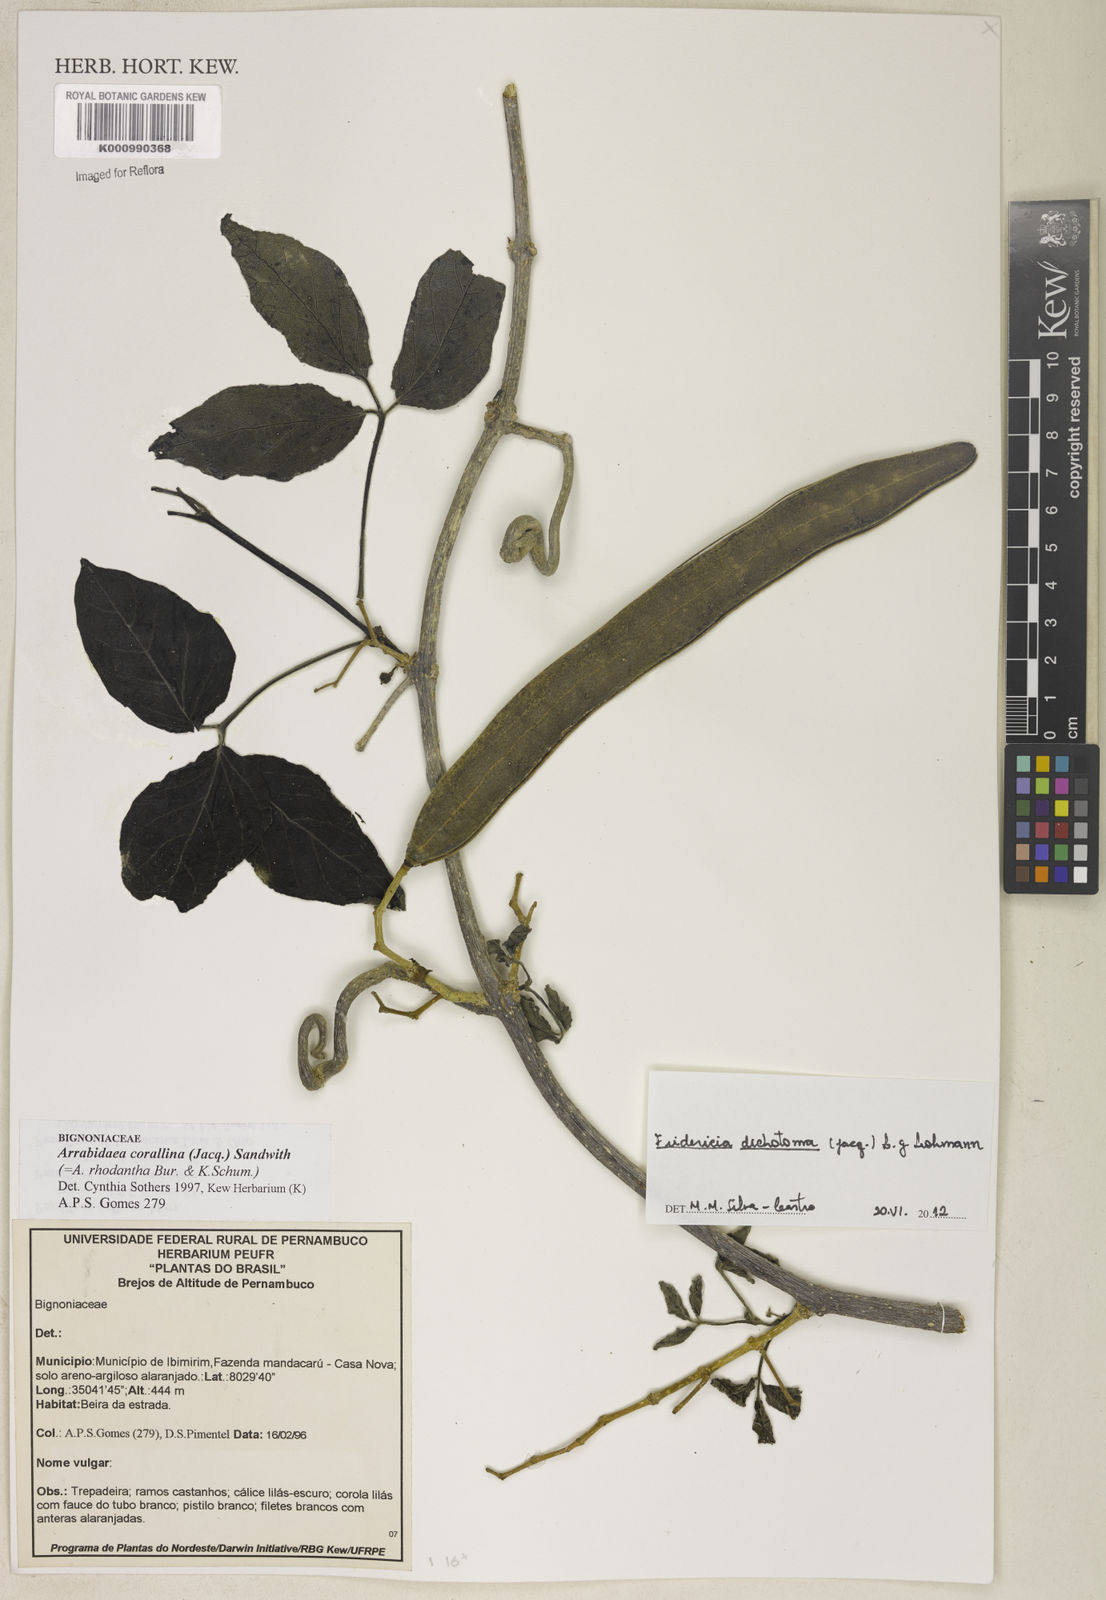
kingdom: Plantae
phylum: Tracheophyta
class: Magnoliopsida
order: Lamiales
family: Bignoniaceae
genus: Tanaecium
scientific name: Tanaecium dichotomum
